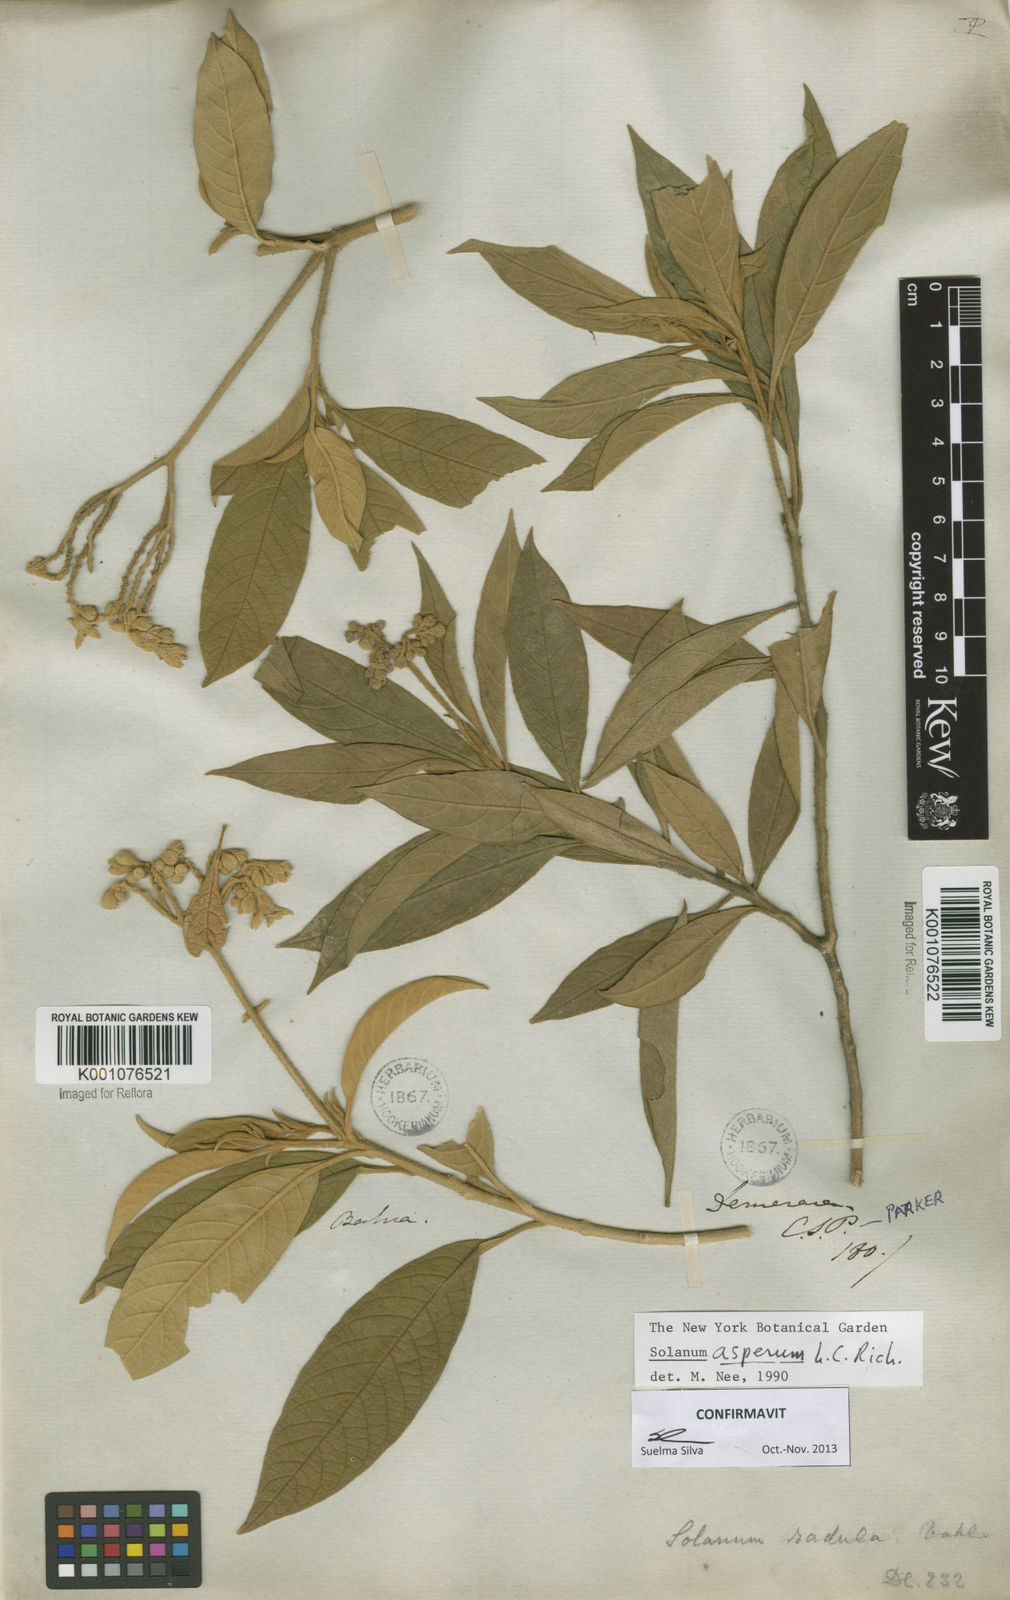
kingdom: Plantae
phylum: Tracheophyta
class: Magnoliopsida
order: Solanales
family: Solanaceae
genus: Solanum
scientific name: Solanum asperum
